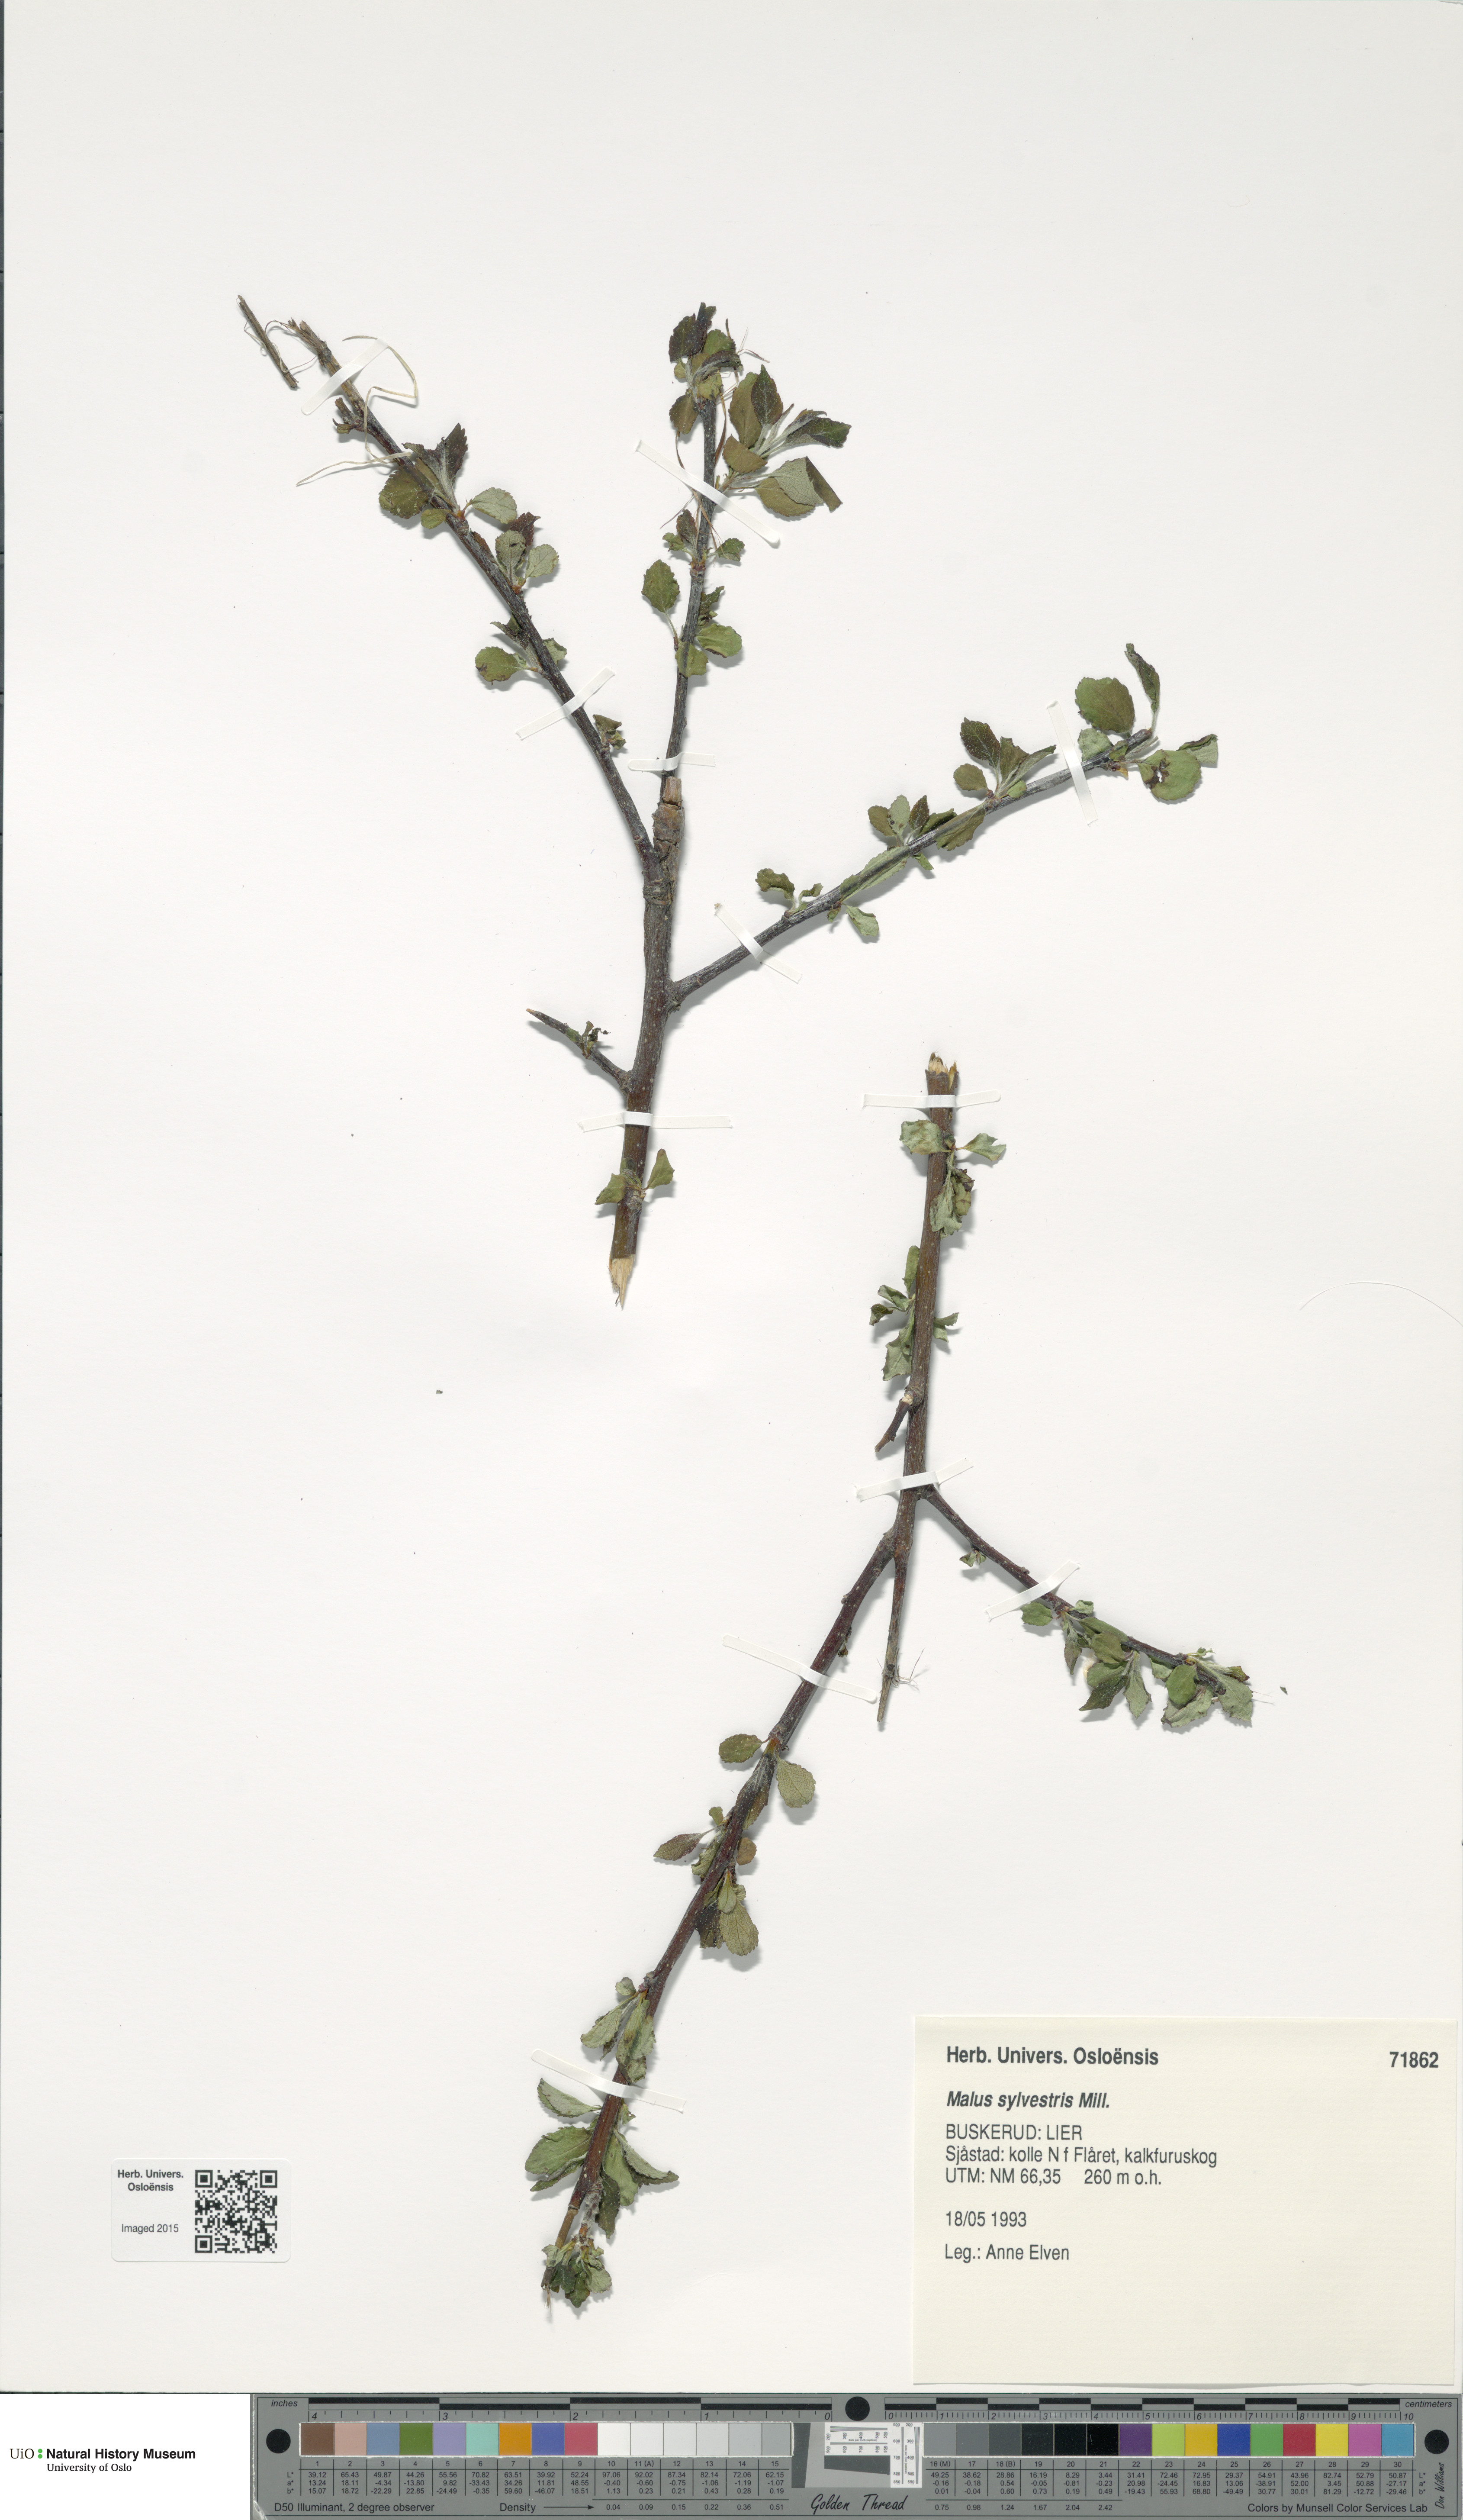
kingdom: Plantae
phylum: Tracheophyta
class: Magnoliopsida
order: Rosales
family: Rosaceae
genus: Malus
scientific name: Malus sylvestris
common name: Crab apple
